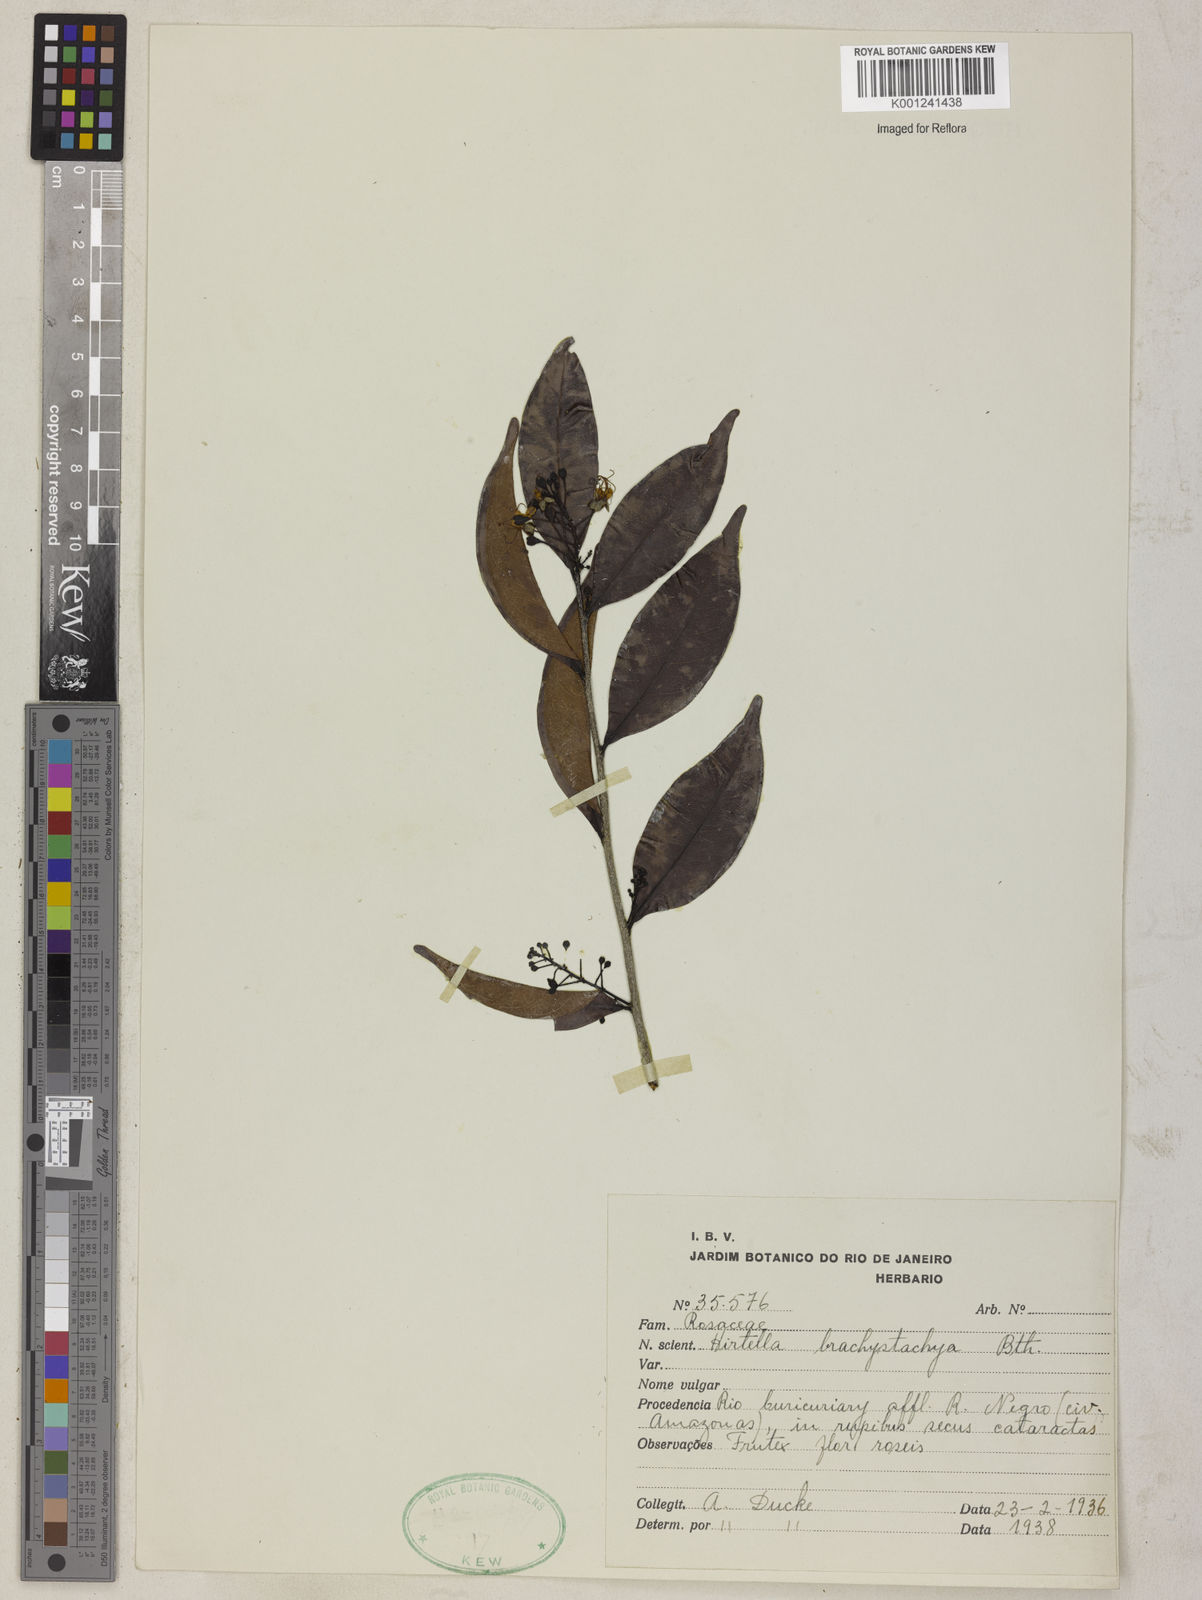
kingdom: Plantae
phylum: Tracheophyta
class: Magnoliopsida
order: Malpighiales
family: Chrysobalanaceae
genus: Hirtella
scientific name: Hirtella brachystachya
